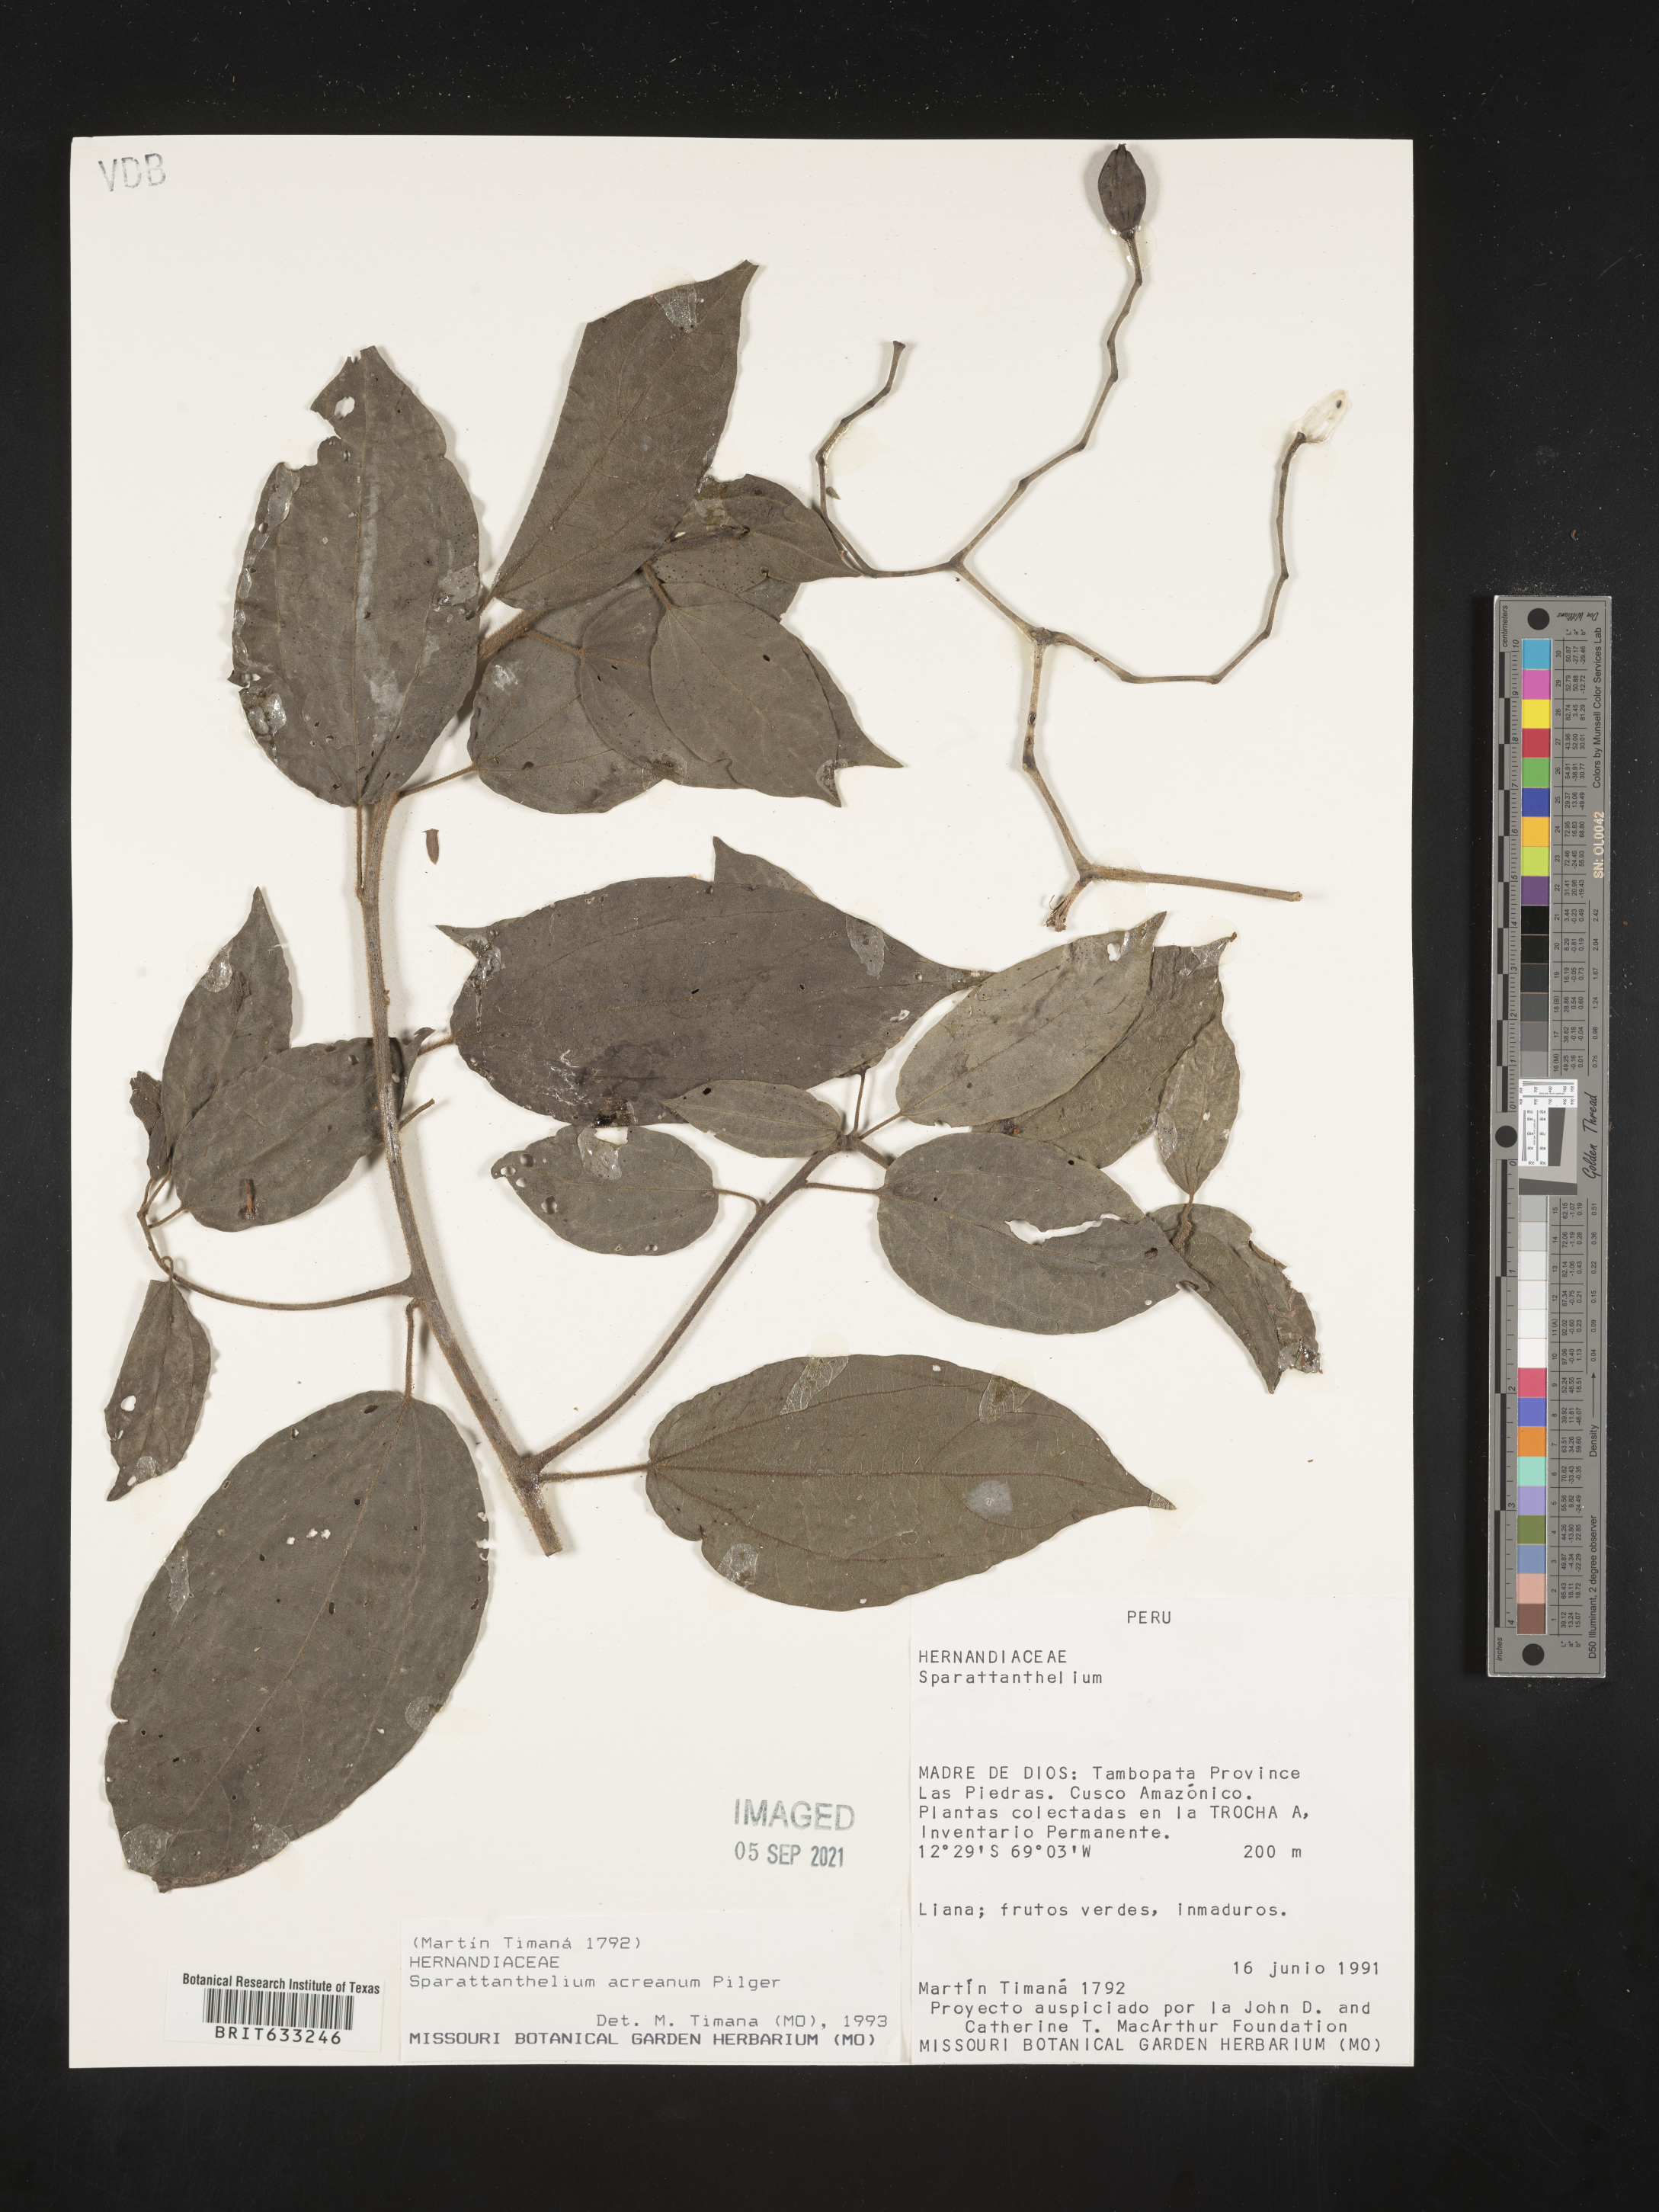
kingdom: Plantae
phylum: Tracheophyta
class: Magnoliopsida
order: Laurales
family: Hernandiaceae
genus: Sparattanthelium
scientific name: Sparattanthelium
